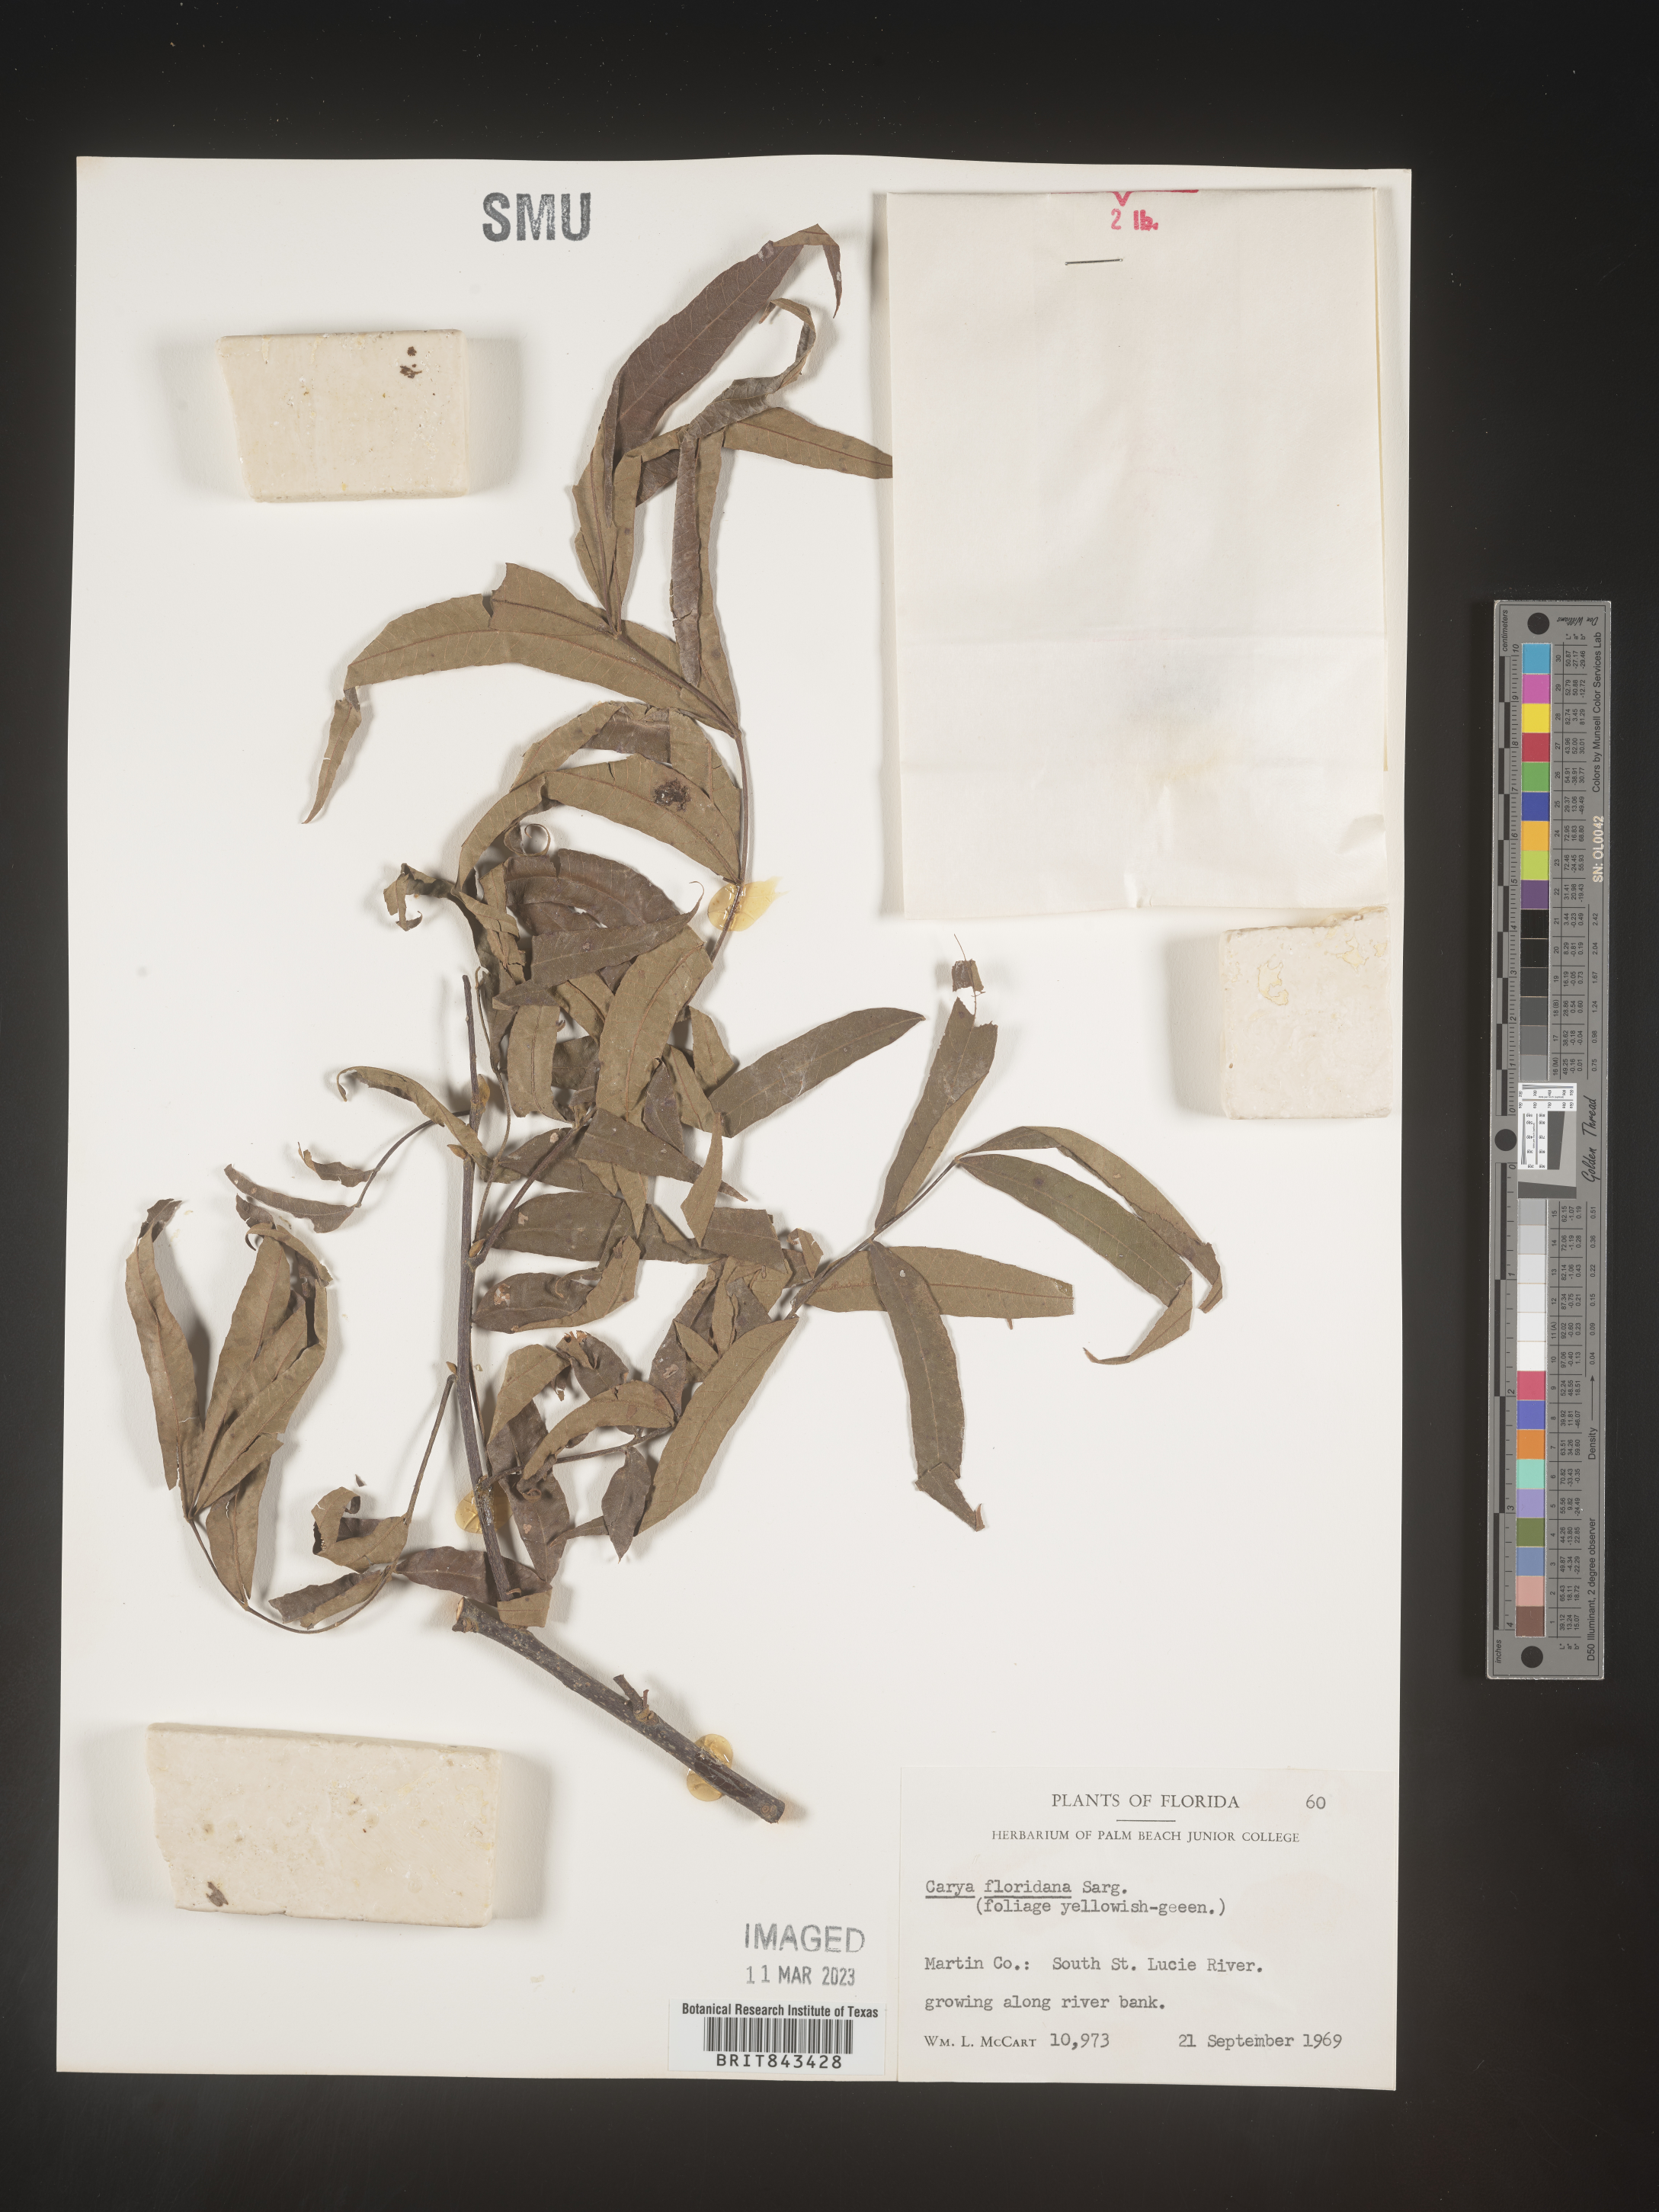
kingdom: Plantae
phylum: Tracheophyta
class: Magnoliopsida
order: Fagales
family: Juglandaceae
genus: Carya
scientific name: Carya glabra
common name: Pignut hickory
